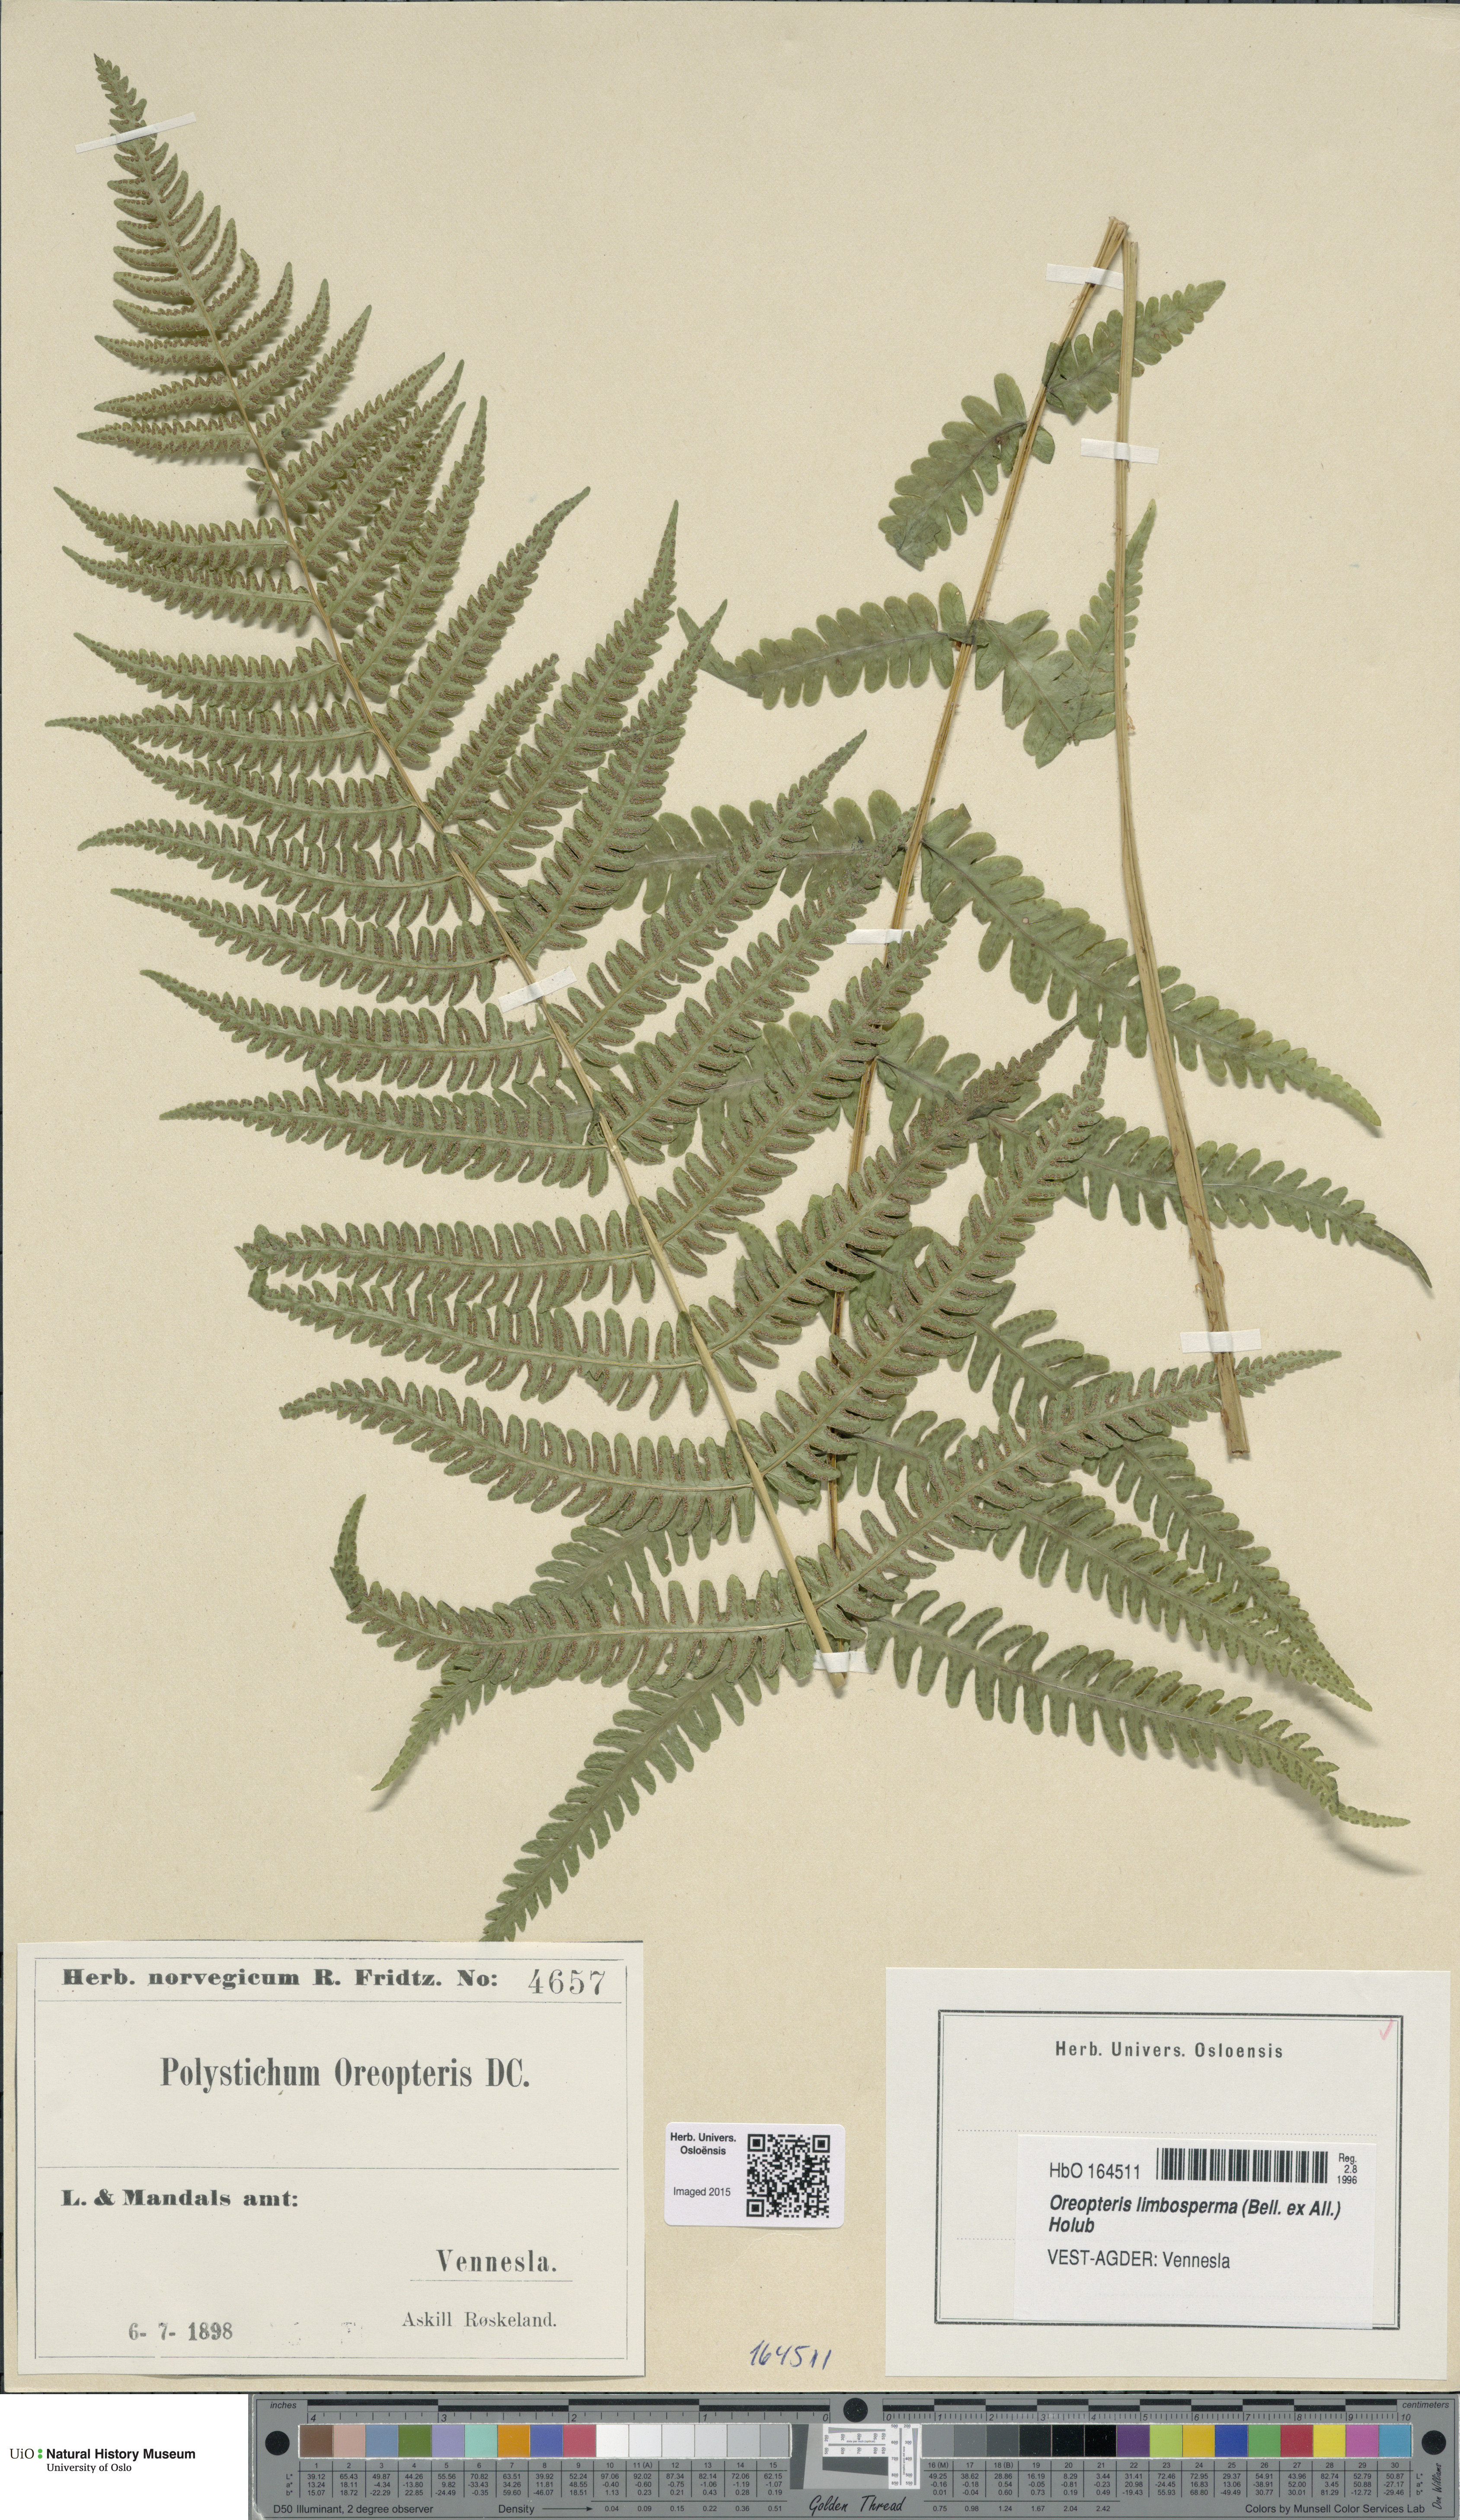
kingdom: Plantae
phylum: Tracheophyta
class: Polypodiopsida
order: Polypodiales
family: Thelypteridaceae
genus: Oreopteris
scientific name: Oreopteris limbosperma
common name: Lemon-scented fern
